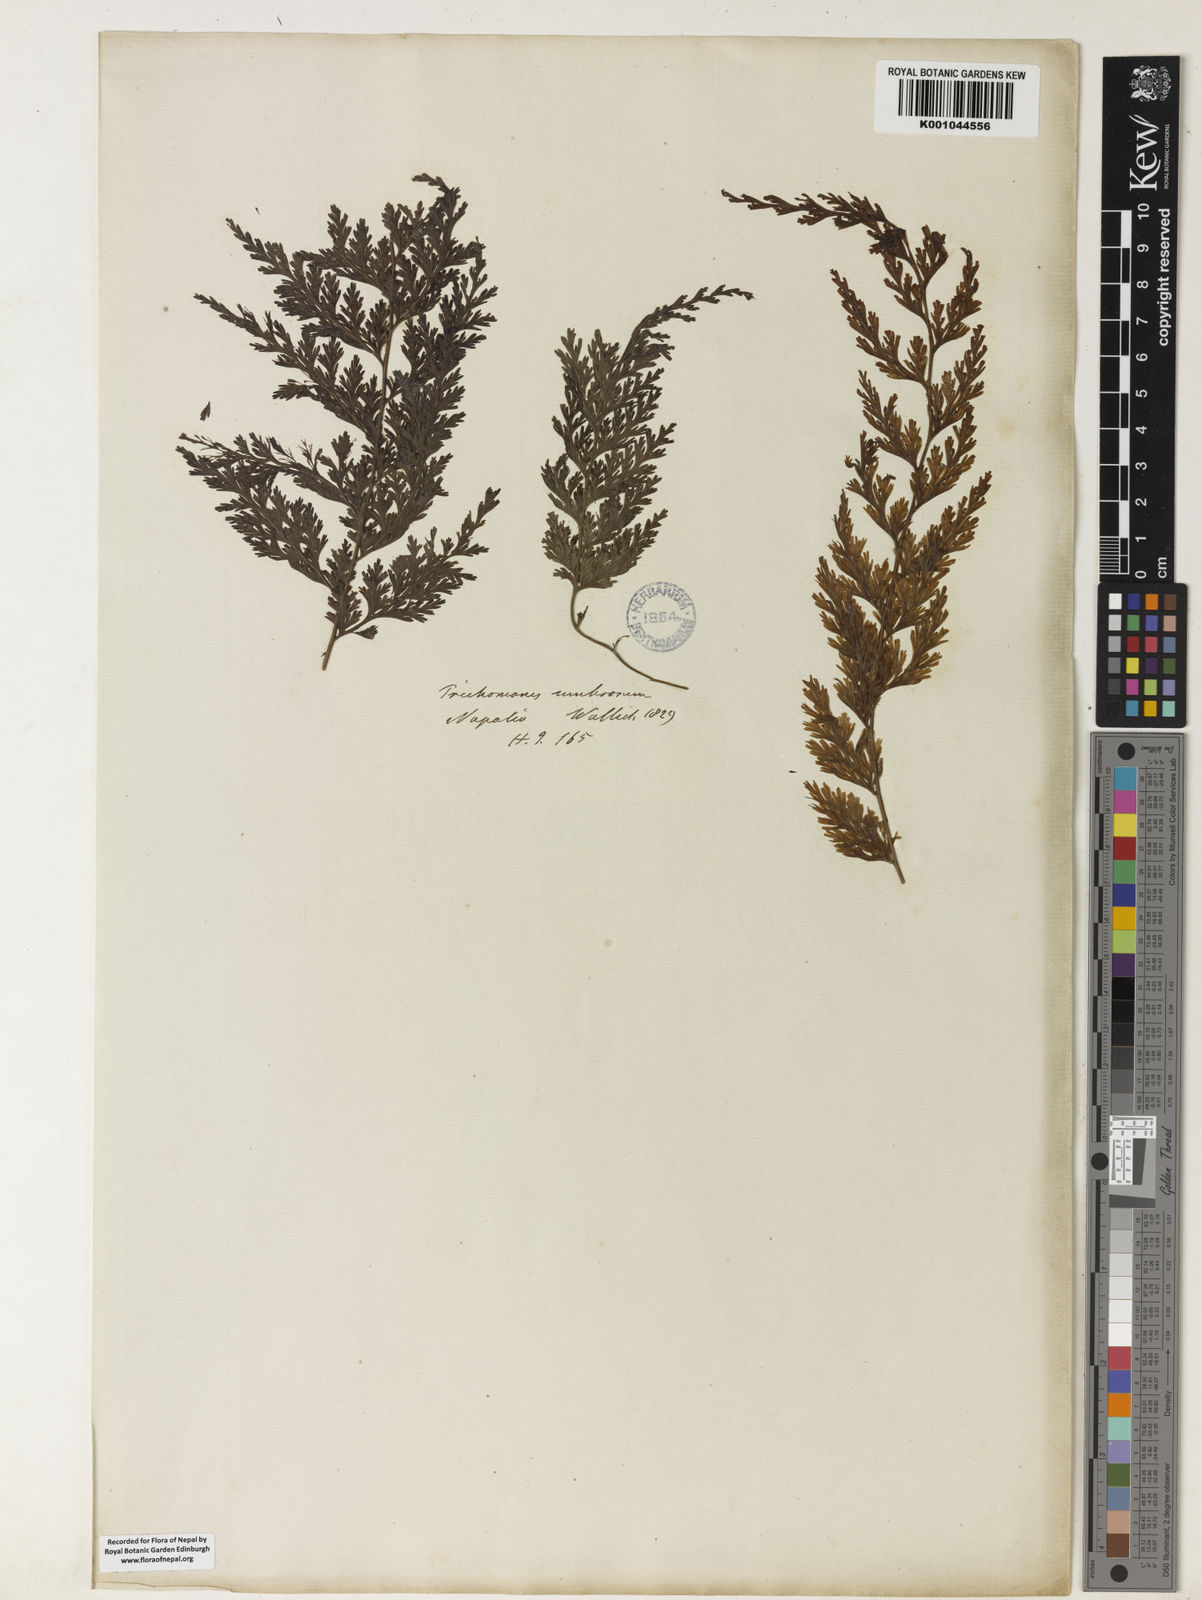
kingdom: Plantae
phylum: Tracheophyta
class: Polypodiopsida
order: Hymenophyllales
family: Hymenophyllaceae
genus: Vandenboschia
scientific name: Vandenboschia radicans
